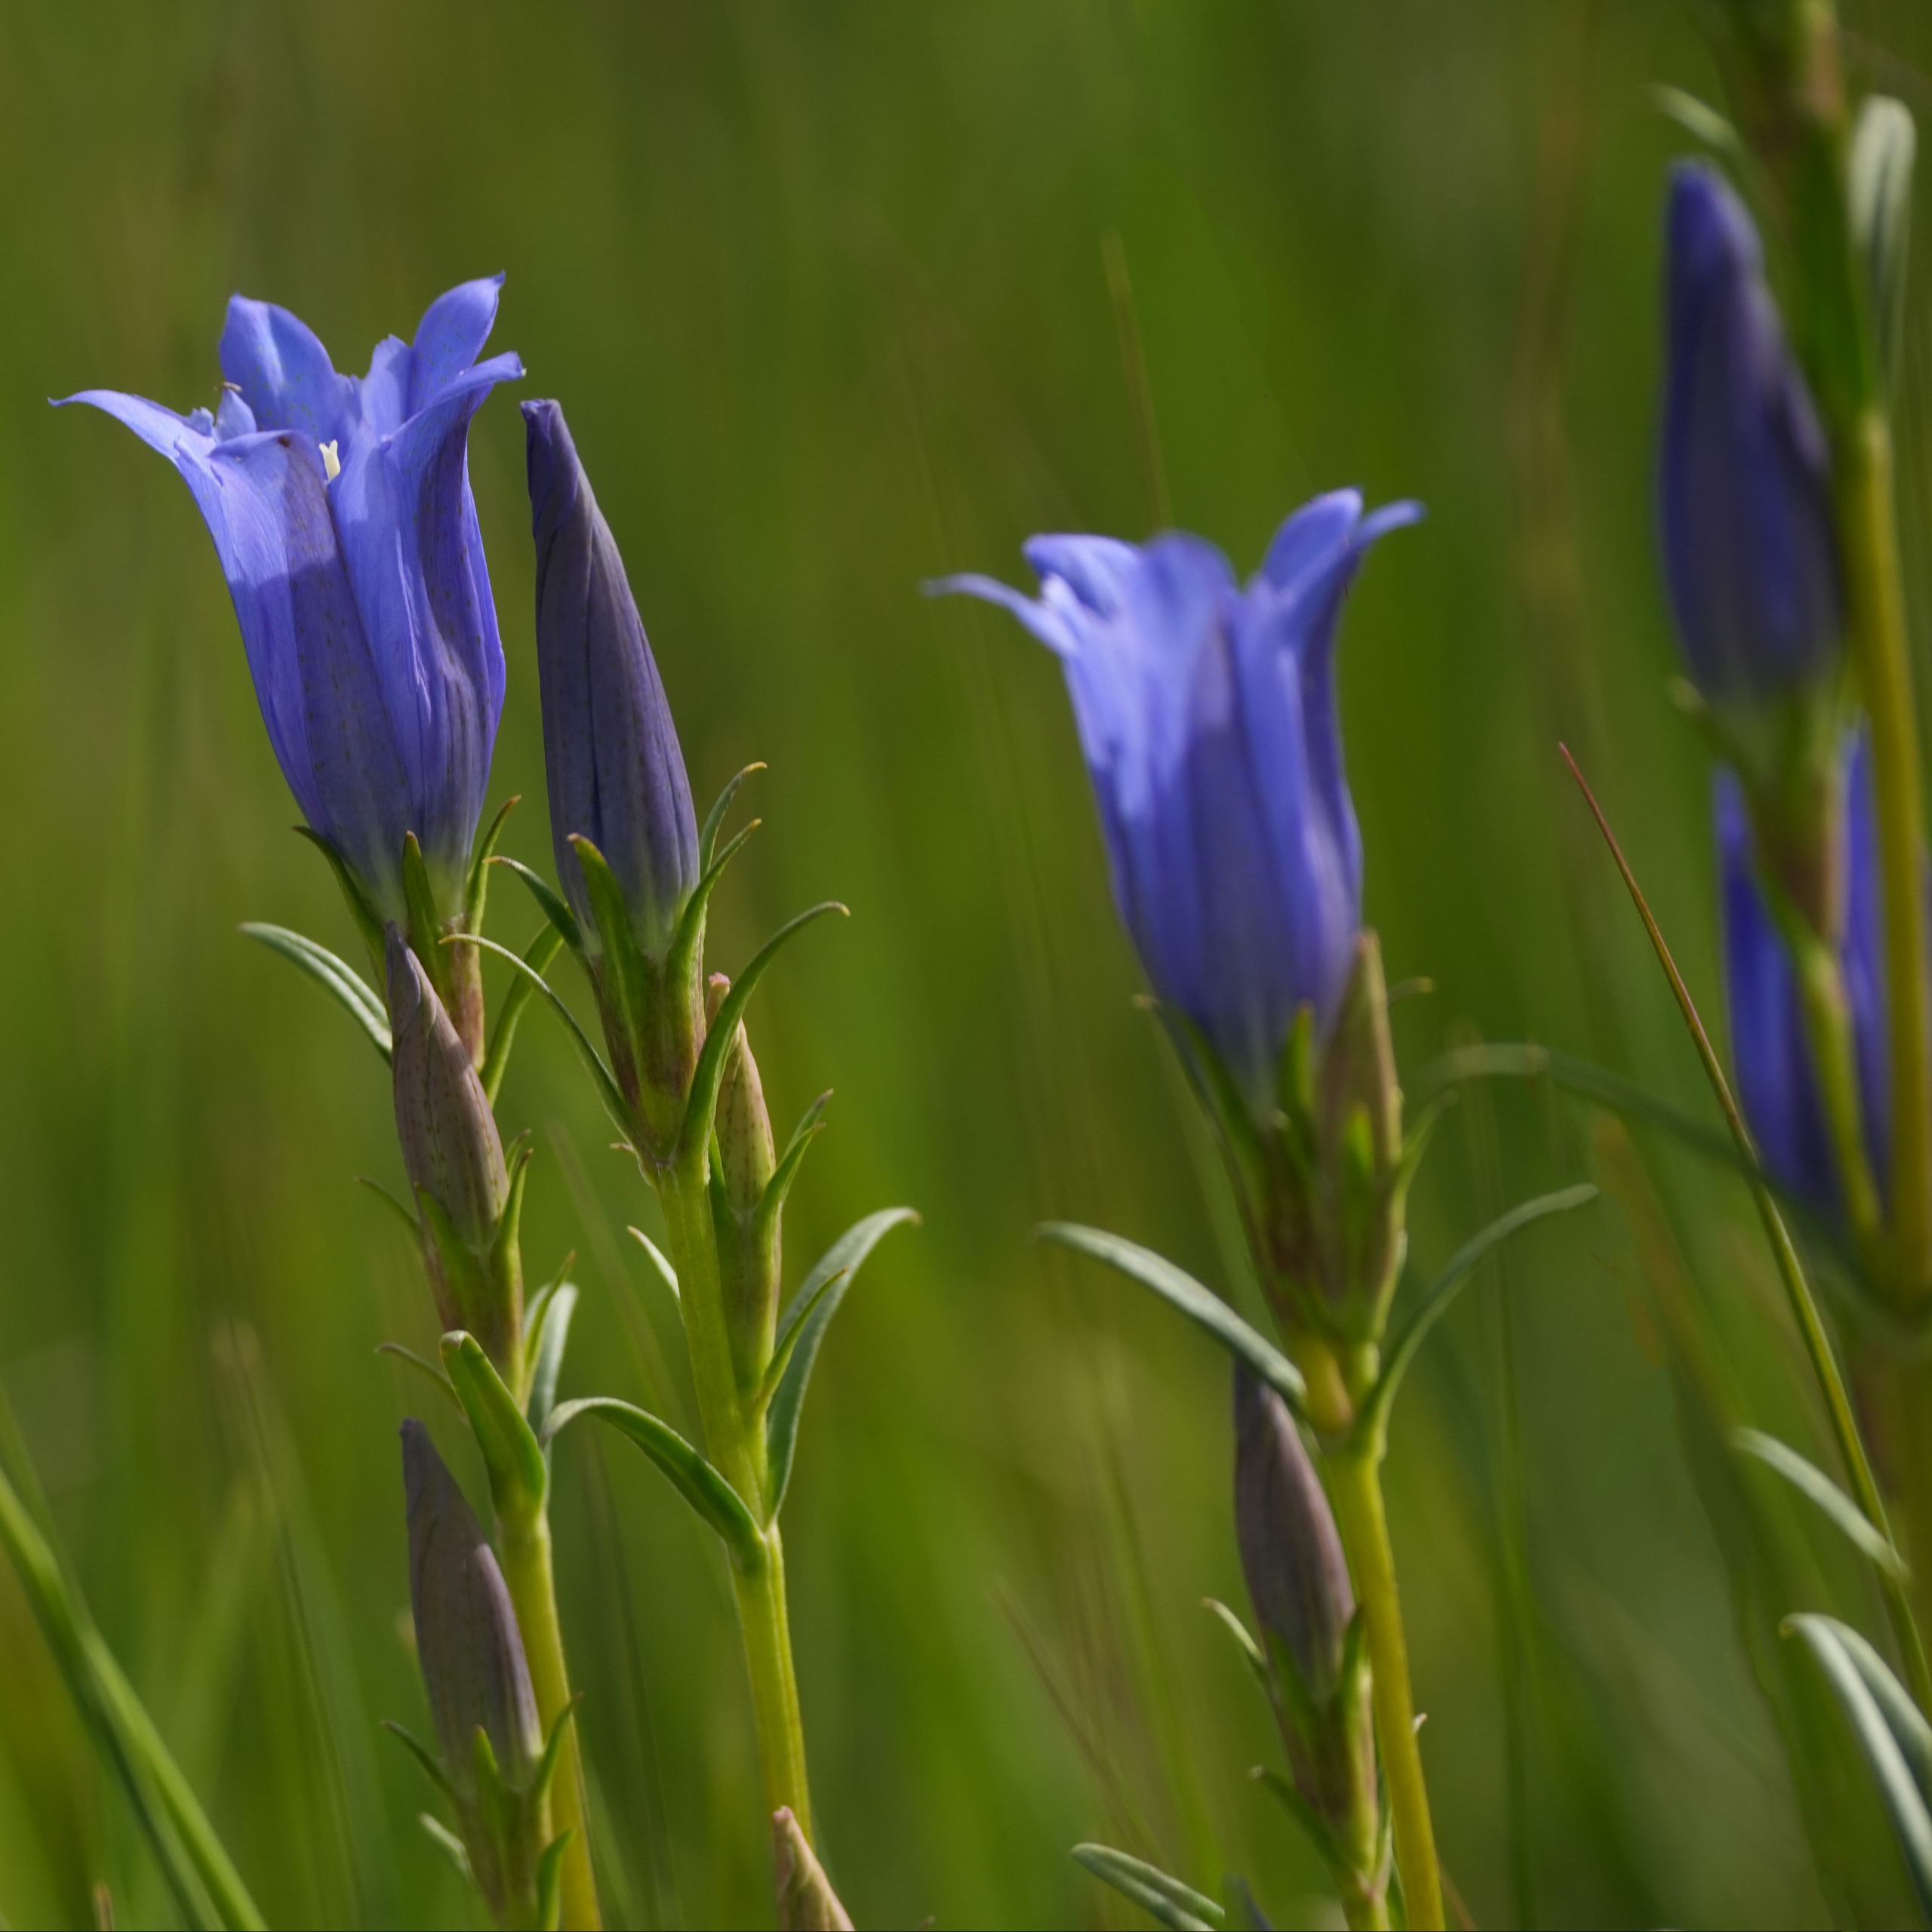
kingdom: Plantae
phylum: Tracheophyta
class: Magnoliopsida
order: Gentianales
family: Gentianaceae
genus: Gentiana
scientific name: Gentiana pneumonanthe
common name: Klokke-ensian
